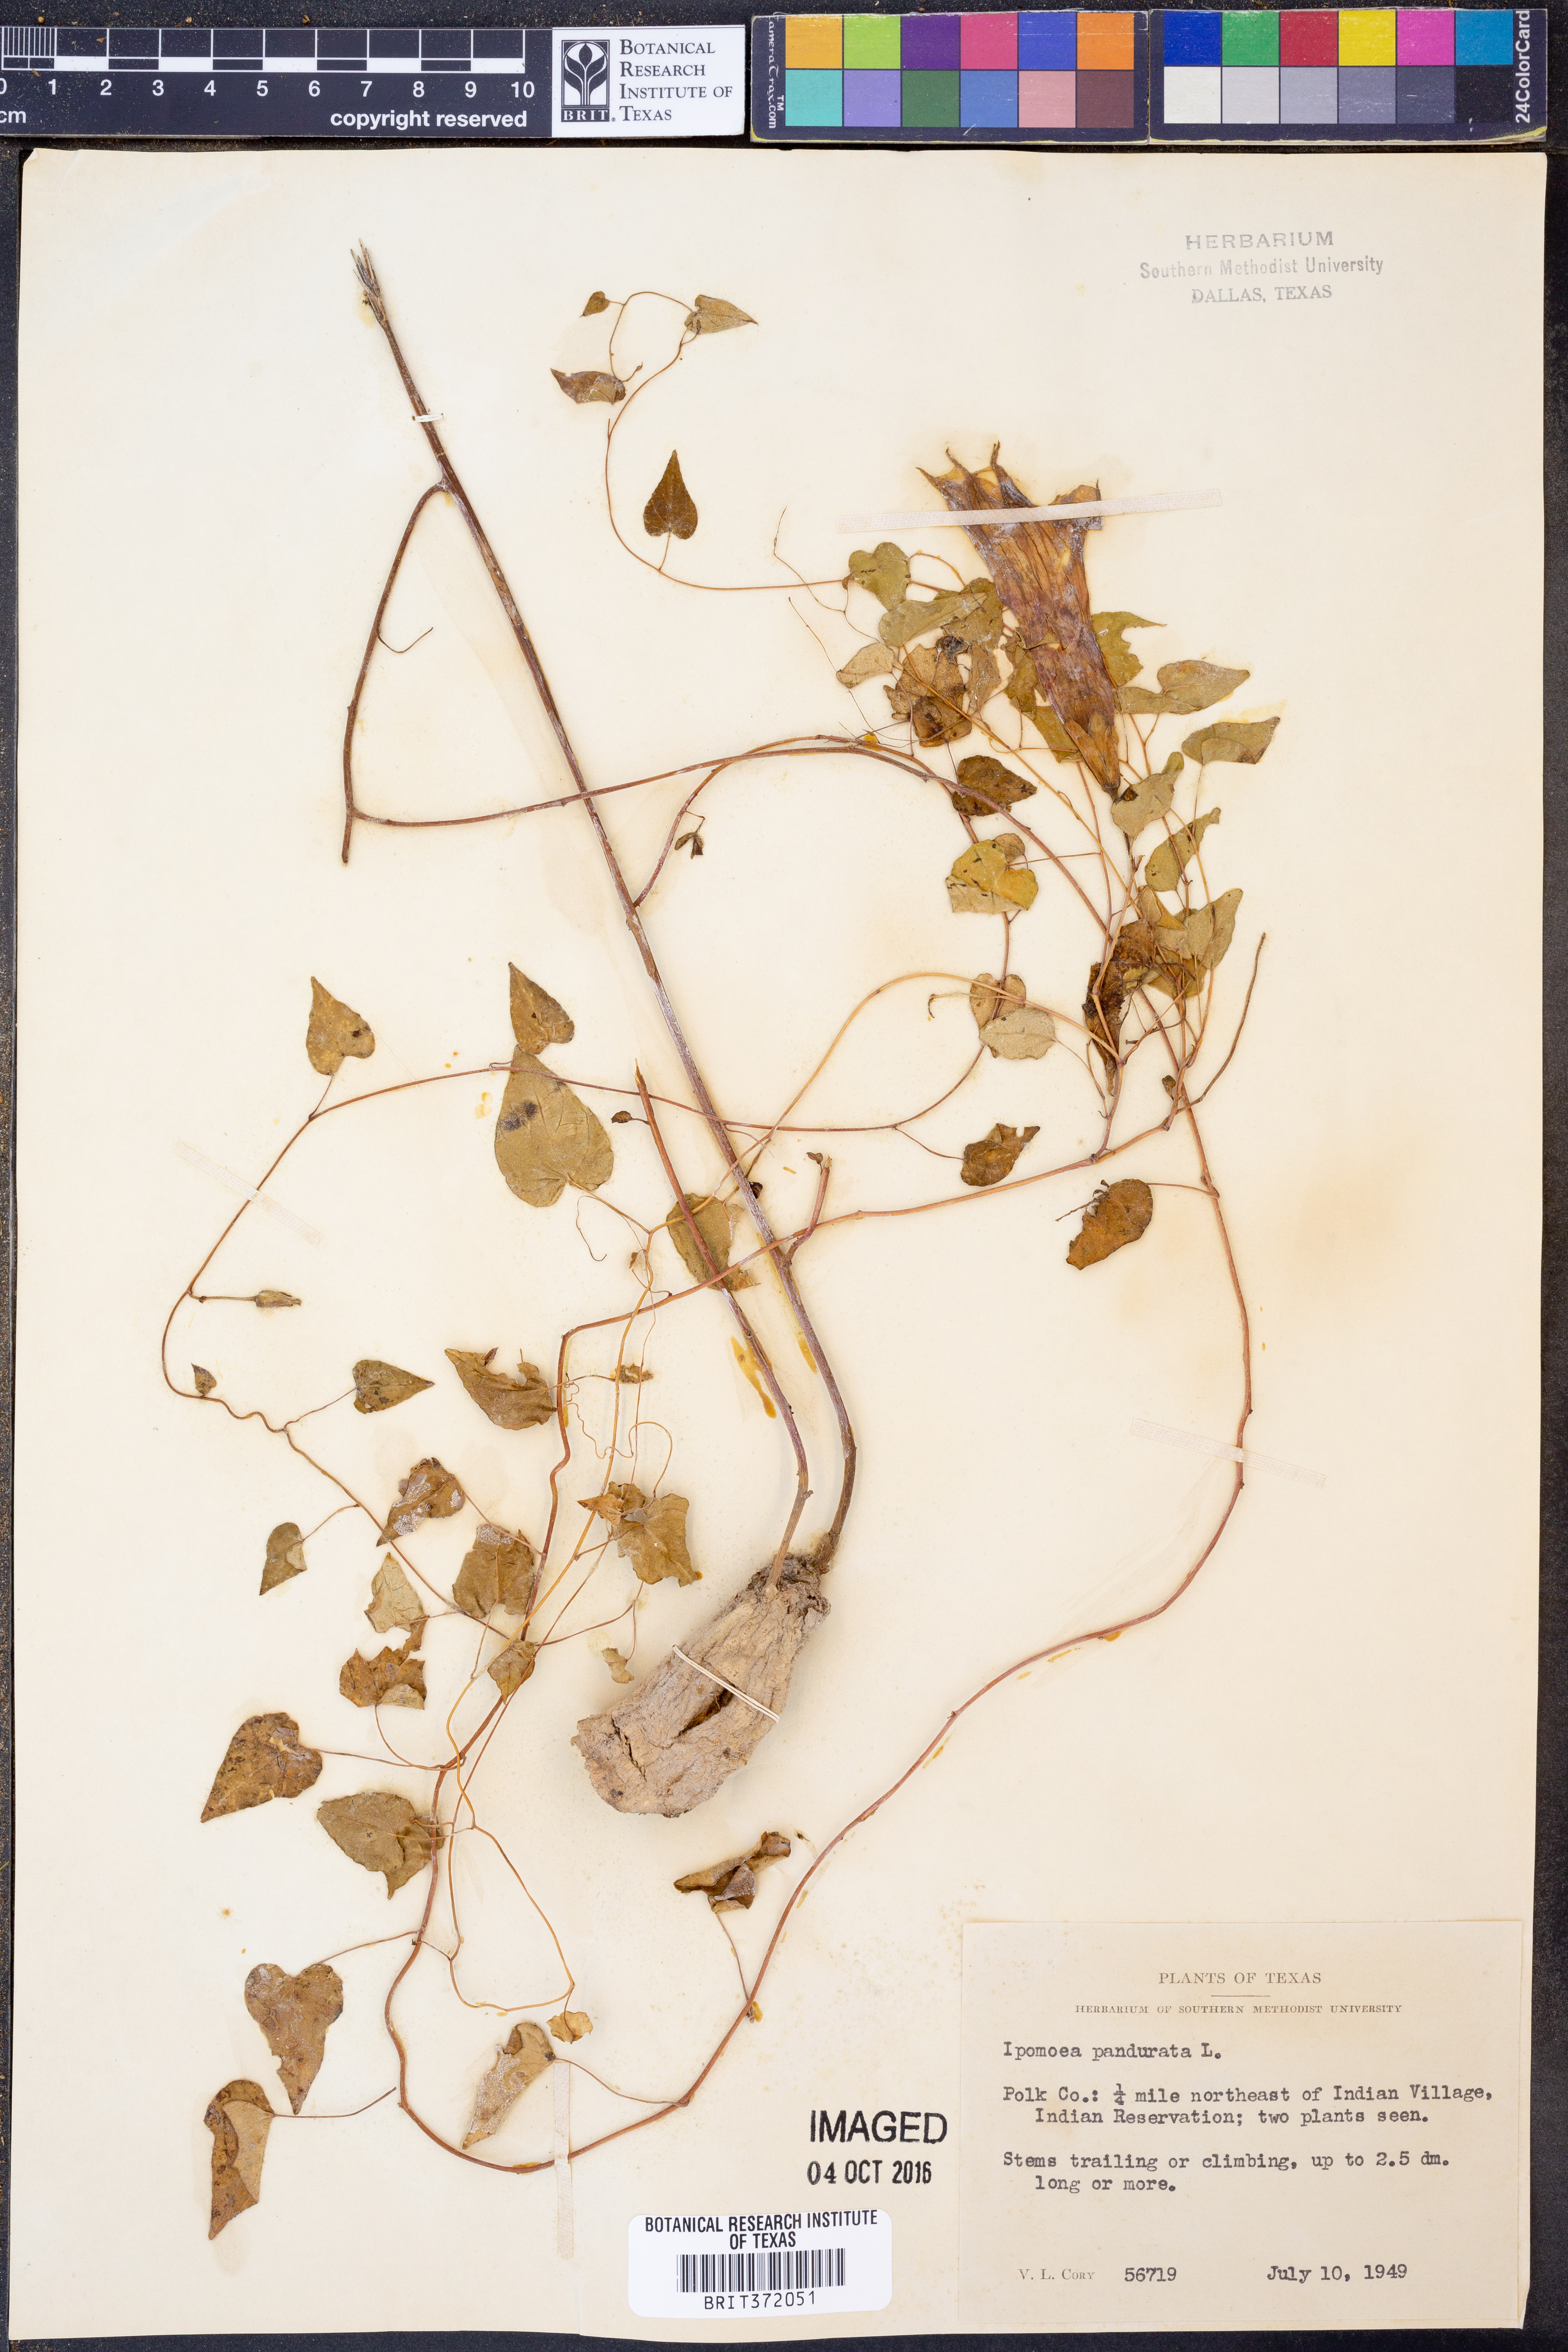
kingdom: Plantae
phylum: Tracheophyta
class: Magnoliopsida
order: Solanales
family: Convolvulaceae
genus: Ipomoea
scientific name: Ipomoea pandurata
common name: Man-of-the-earth
